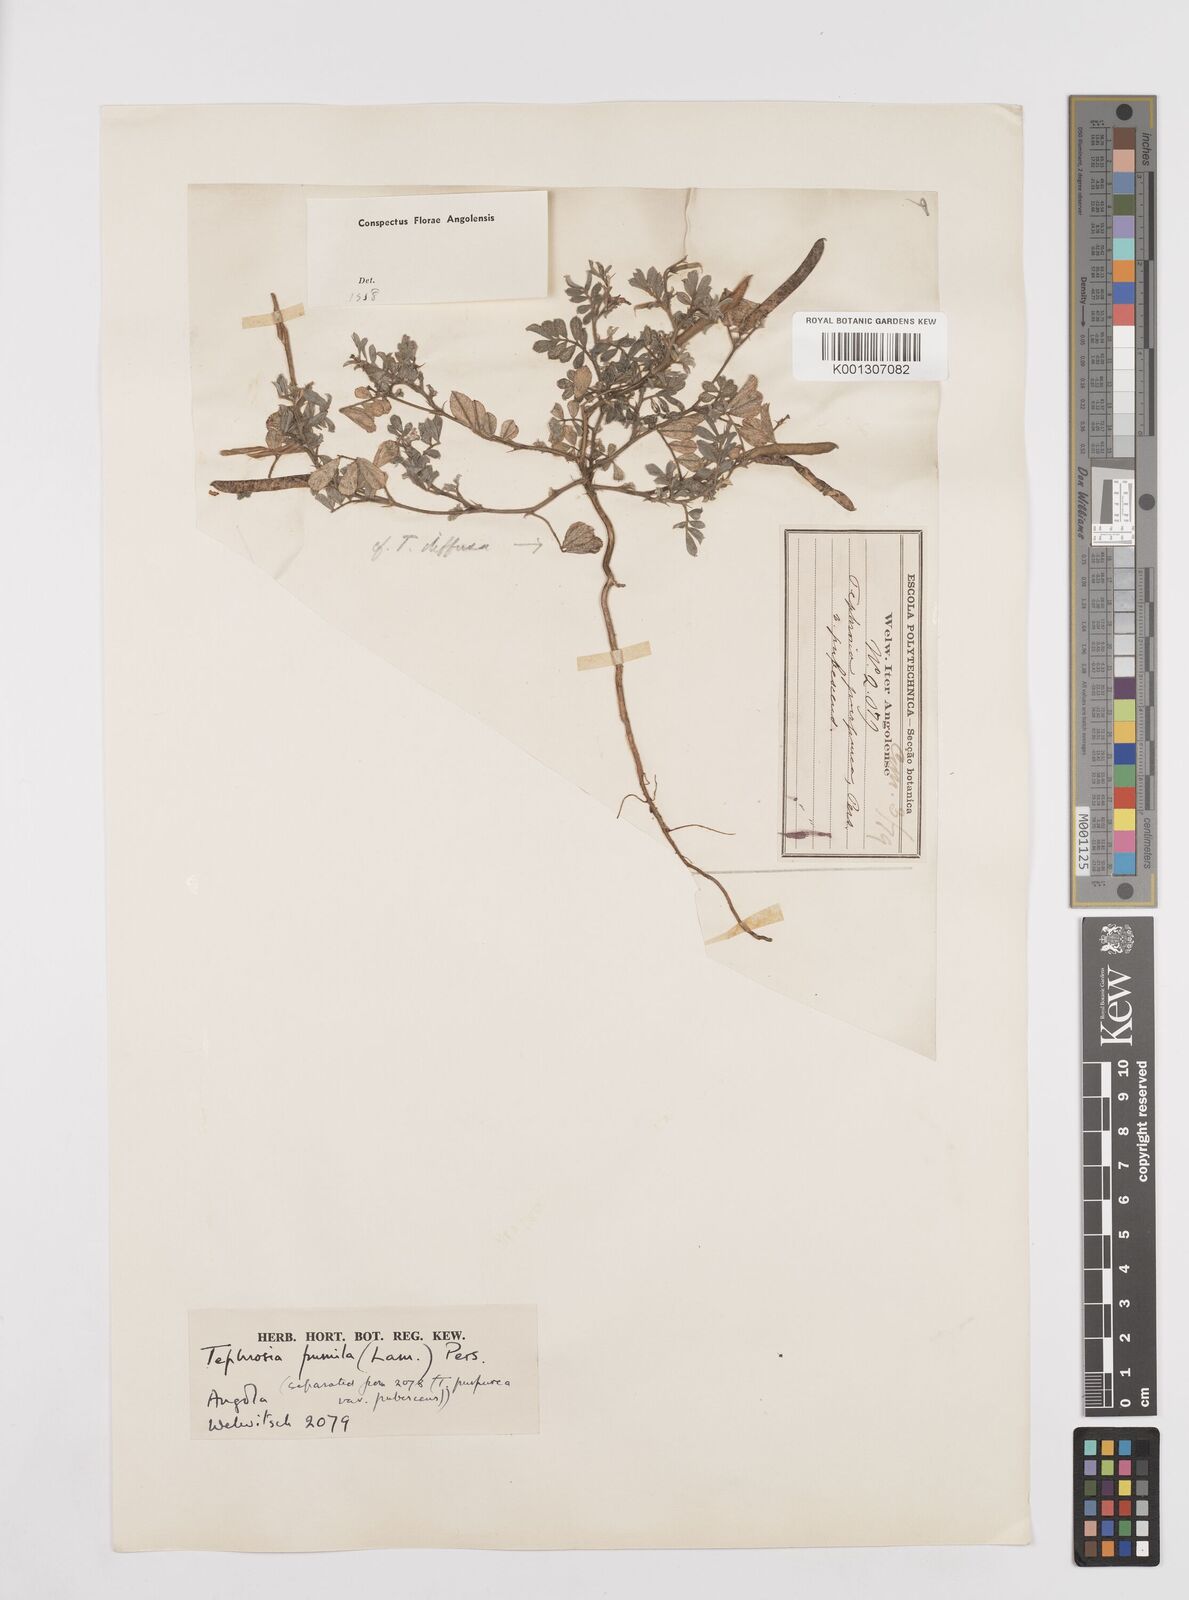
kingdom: Plantae
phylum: Tracheophyta
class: Magnoliopsida
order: Fabales
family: Fabaceae
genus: Tephrosia
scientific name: Tephrosia pumila
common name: Indigo sauvage
